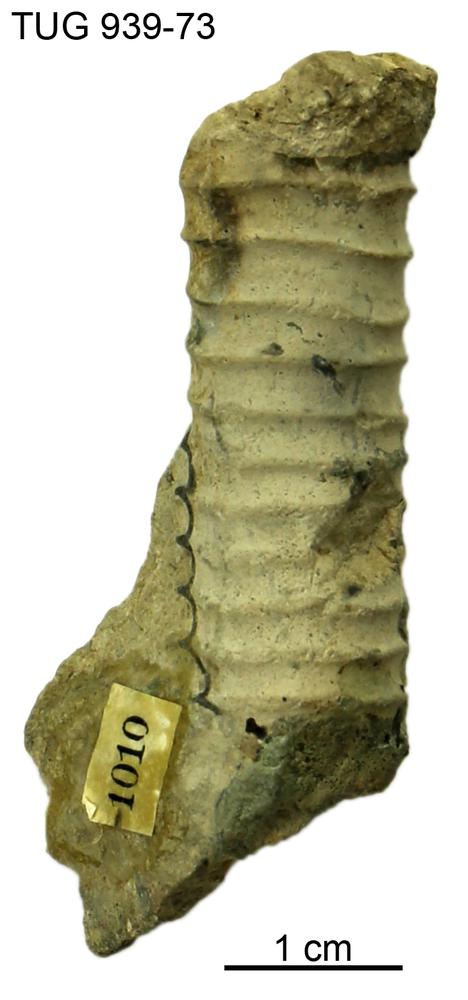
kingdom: Animalia
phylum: Mollusca
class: Cephalopoda
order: Orthocerida
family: Pseudorthoceratidae
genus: Spyroceras
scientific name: Spyroceras
